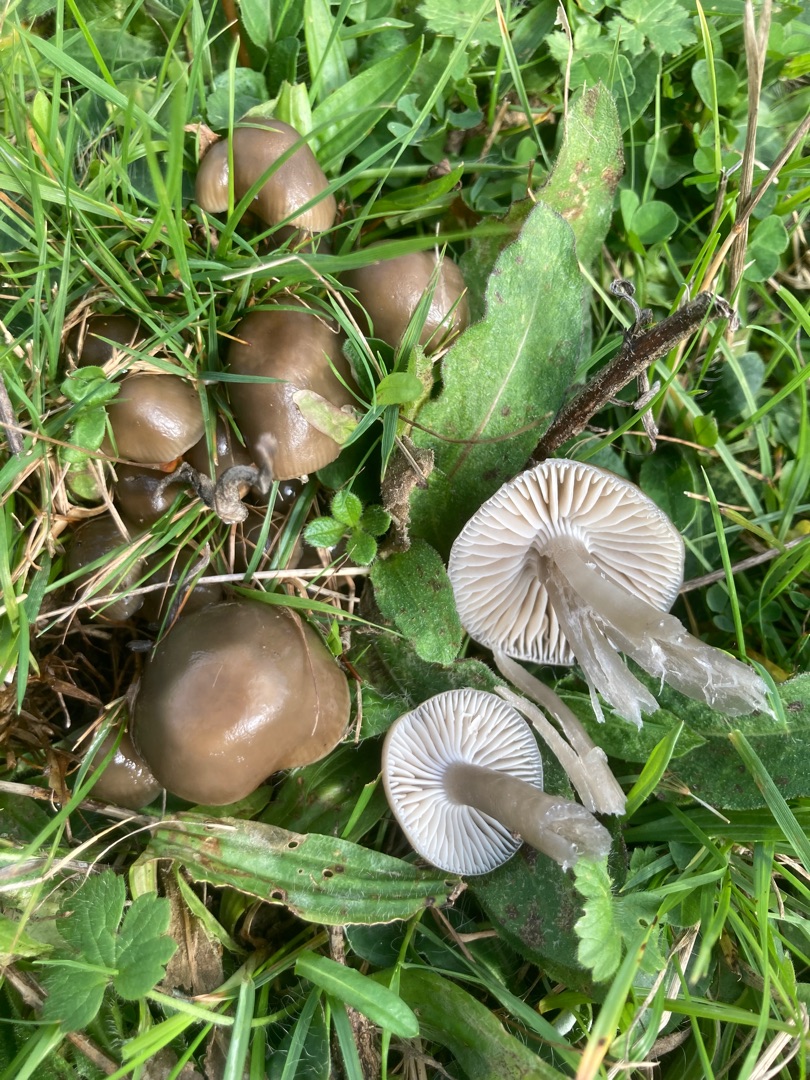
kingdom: Fungi
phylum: Basidiomycota
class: Agaricomycetes
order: Agaricales
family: Hygrophoraceae
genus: Gliophorus
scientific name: Gliophorus irrigatus
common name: Slimet vokshat
